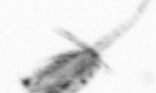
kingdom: Animalia
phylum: Arthropoda
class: Copepoda
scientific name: Copepoda
